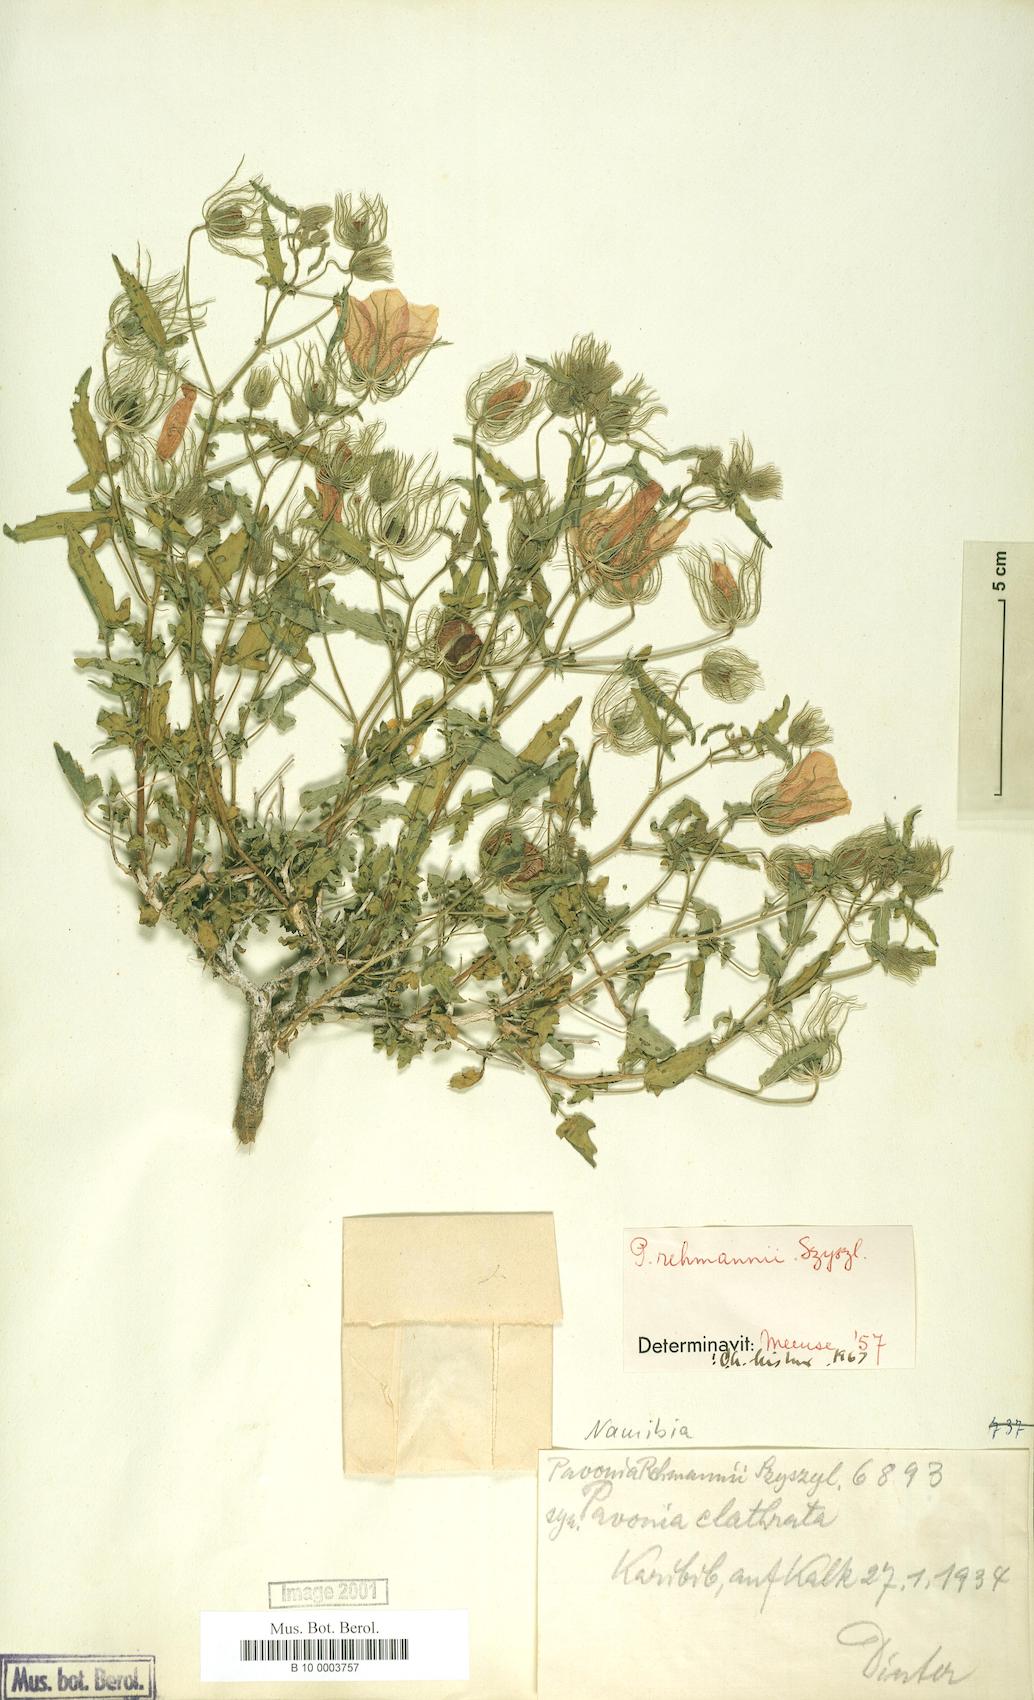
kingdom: Plantae
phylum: Tracheophyta
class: Magnoliopsida
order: Malvales
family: Malvaceae
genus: Pavonia
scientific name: Pavonia rehmannii
